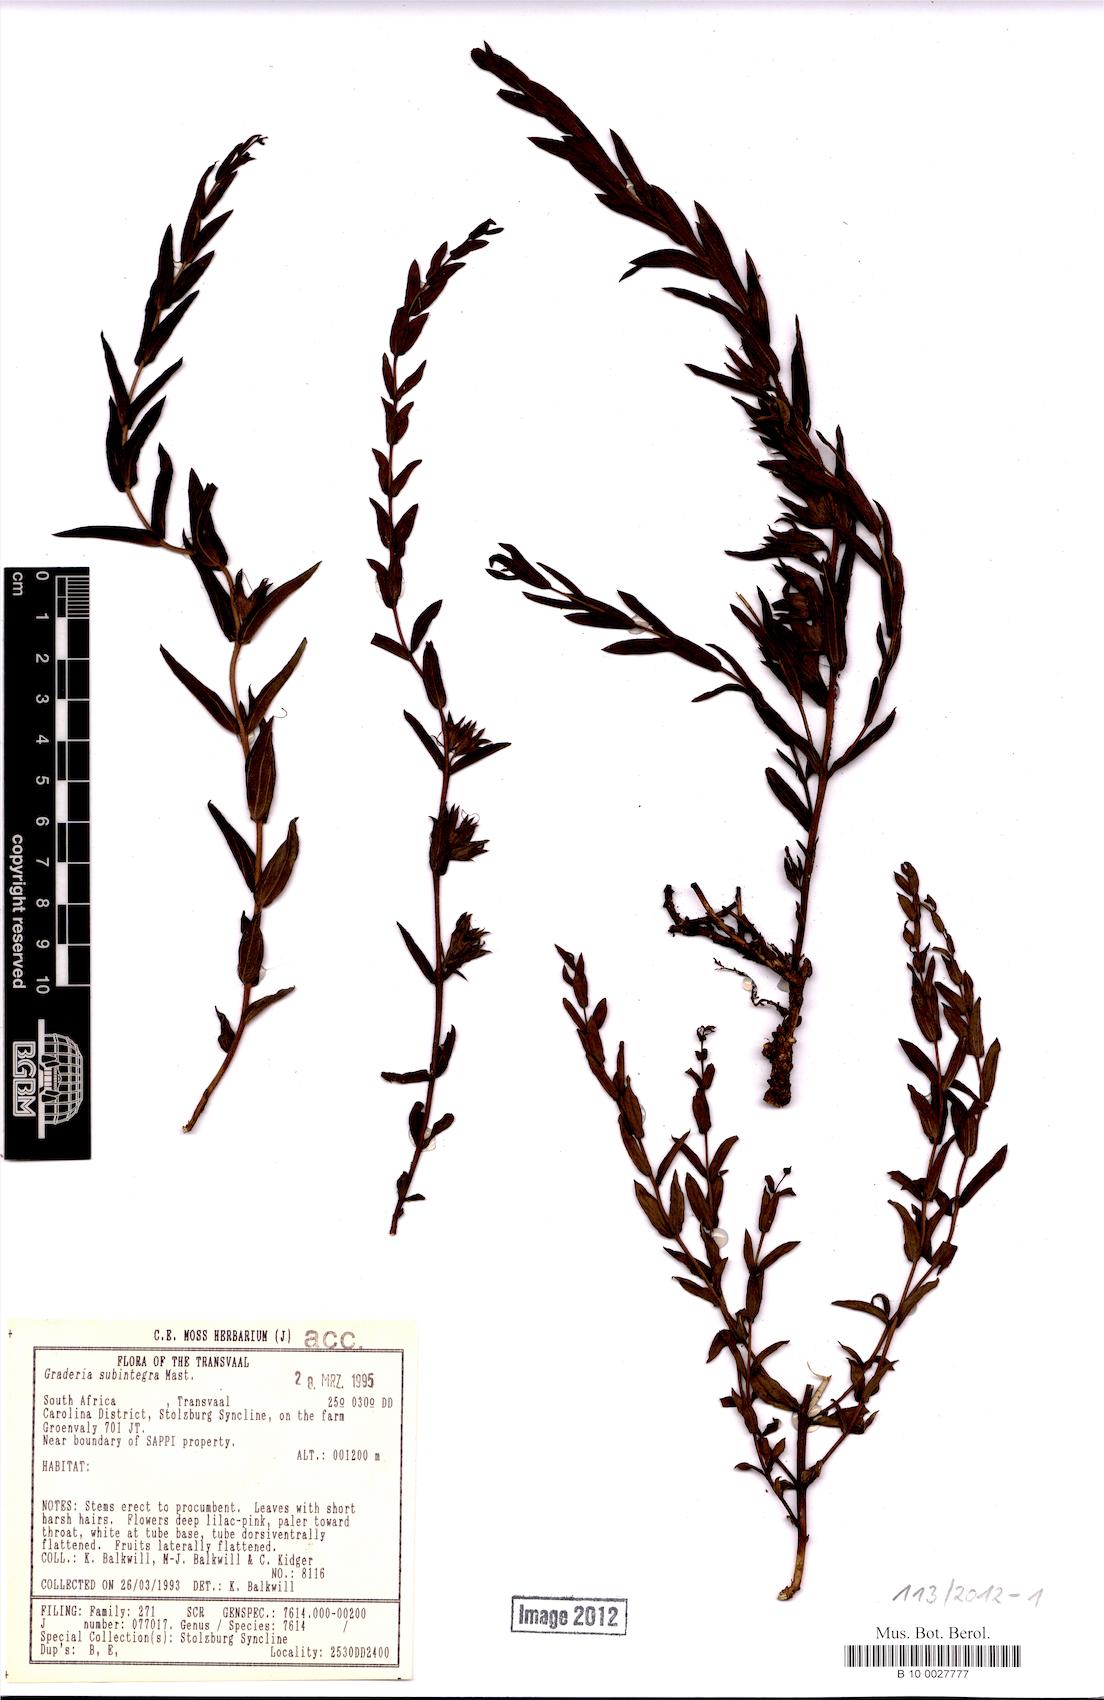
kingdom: Plantae
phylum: Tracheophyta
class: Magnoliopsida
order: Lamiales
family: Orobanchaceae
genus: Graderia
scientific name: Graderia subintegra
